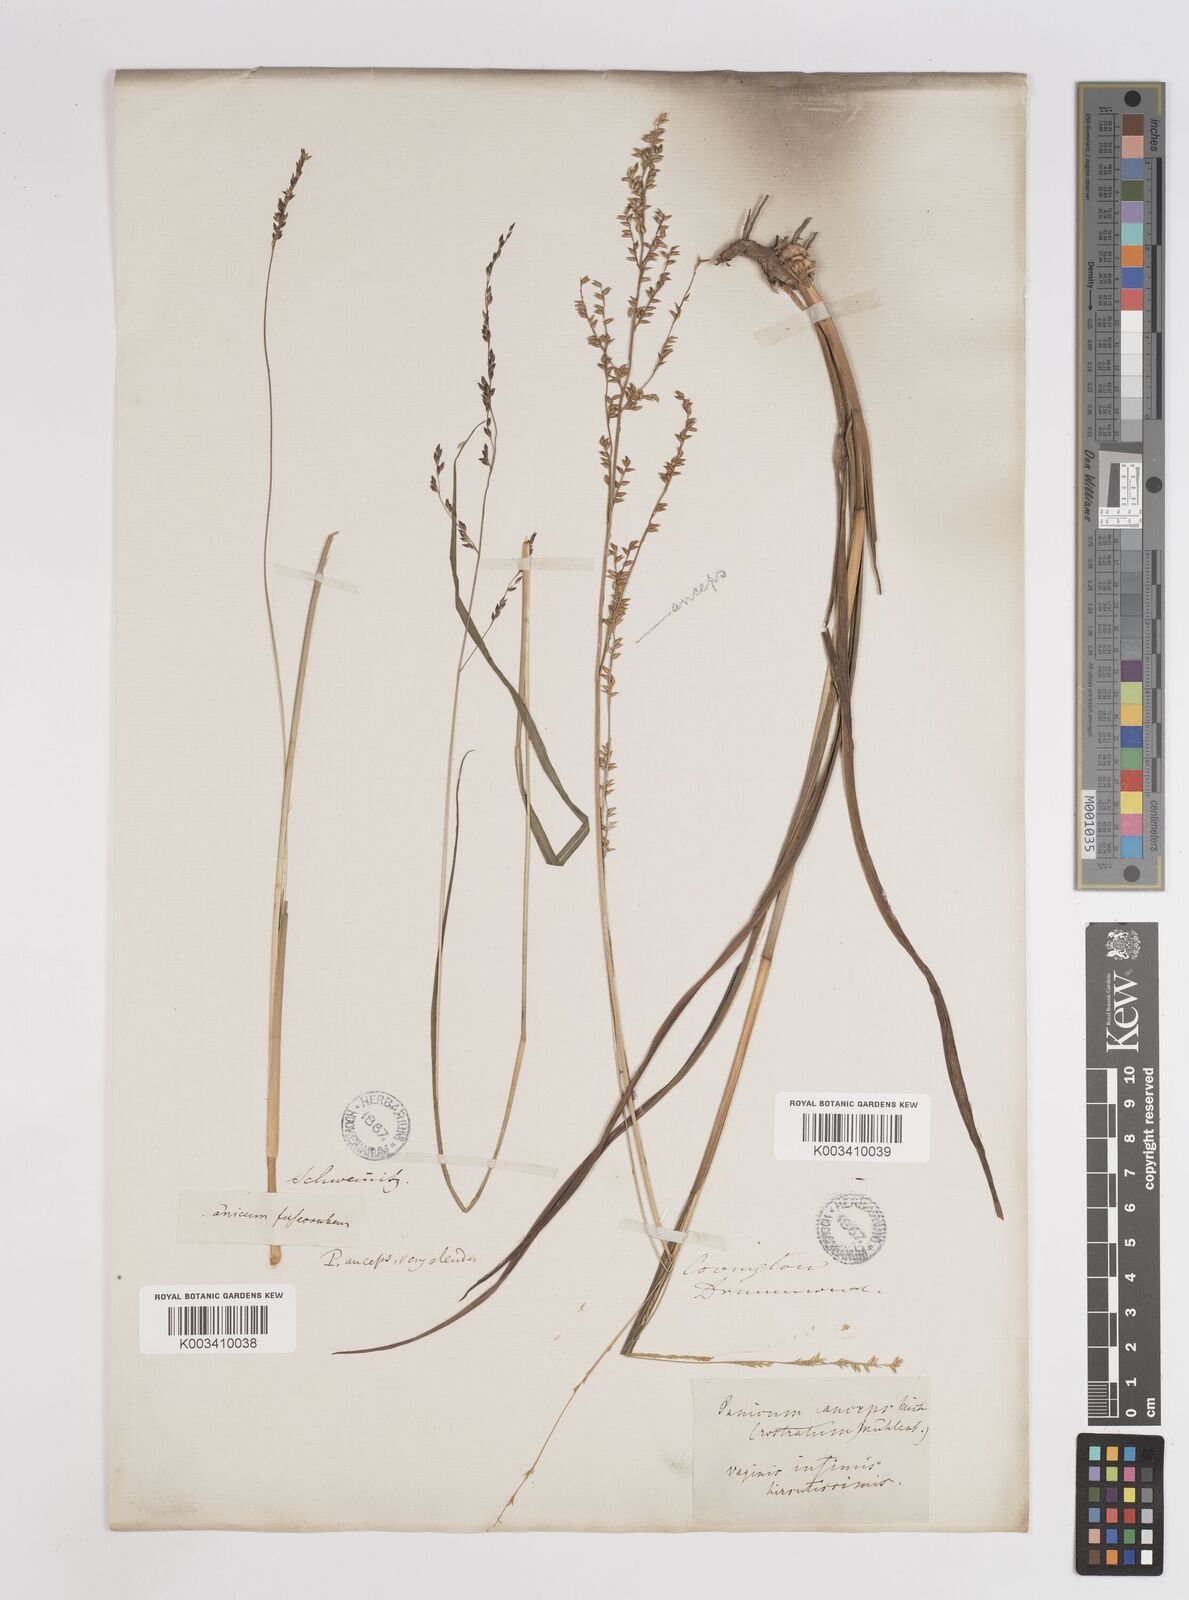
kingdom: Plantae
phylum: Tracheophyta
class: Liliopsida
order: Poales
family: Poaceae
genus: Coleataenia
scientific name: Coleataenia anceps
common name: Beaked panic grass
